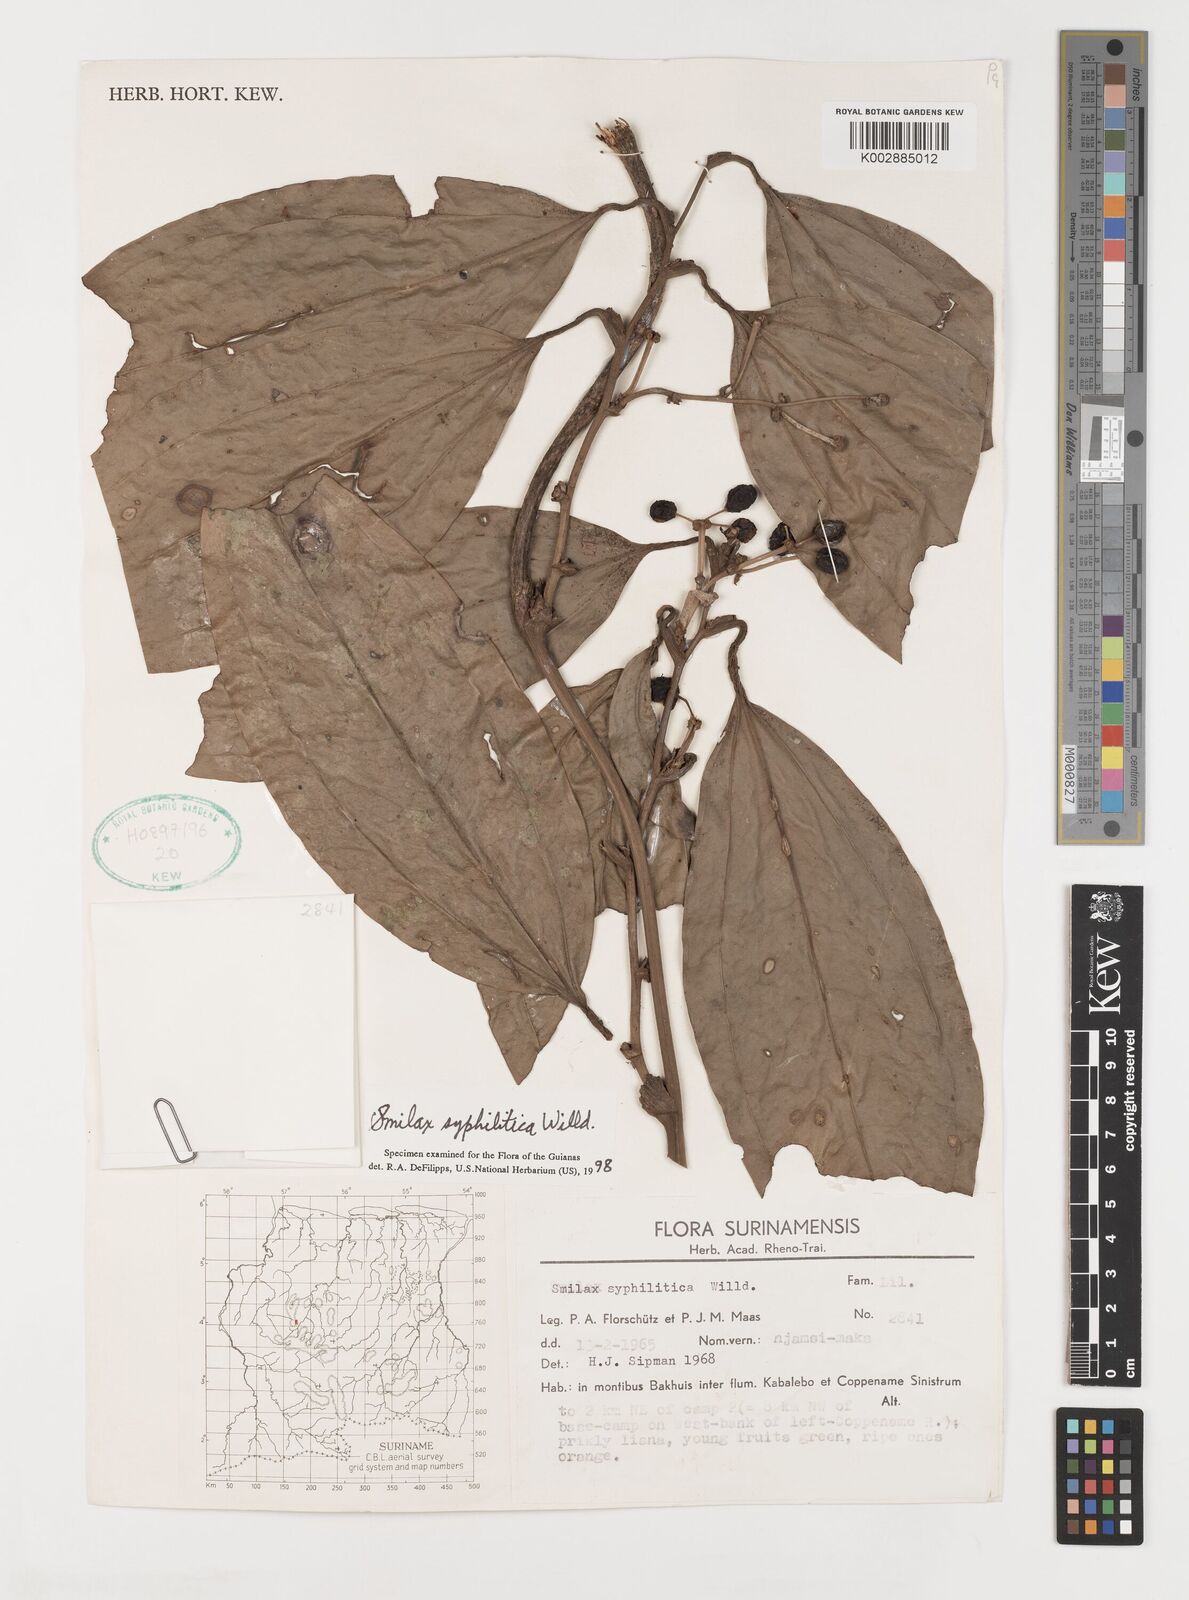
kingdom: Plantae
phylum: Tracheophyta
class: Liliopsida
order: Liliales
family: Smilacaceae
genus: Smilax
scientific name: Smilax schomburgkiana
